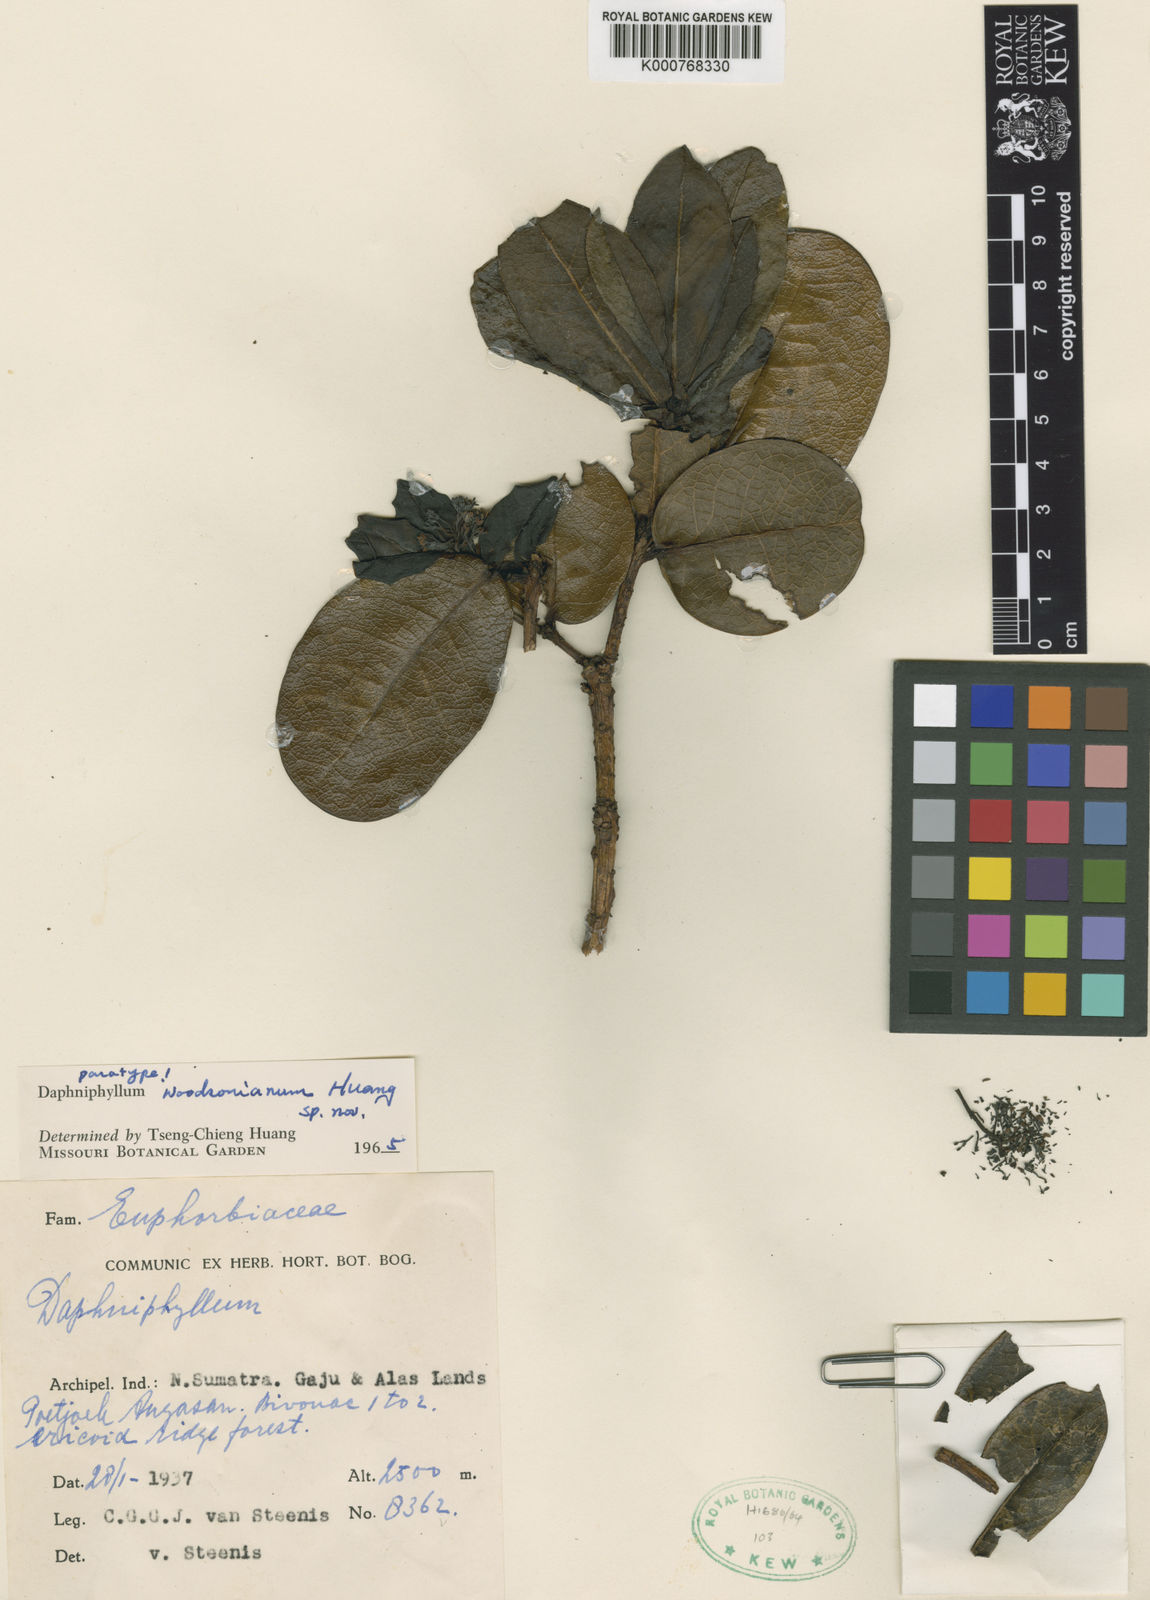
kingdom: Plantae
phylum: Tracheophyta
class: Magnoliopsida
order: Saxifragales
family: Daphniphyllaceae
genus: Daphniphyllum
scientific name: Daphniphyllum woodsonianum
